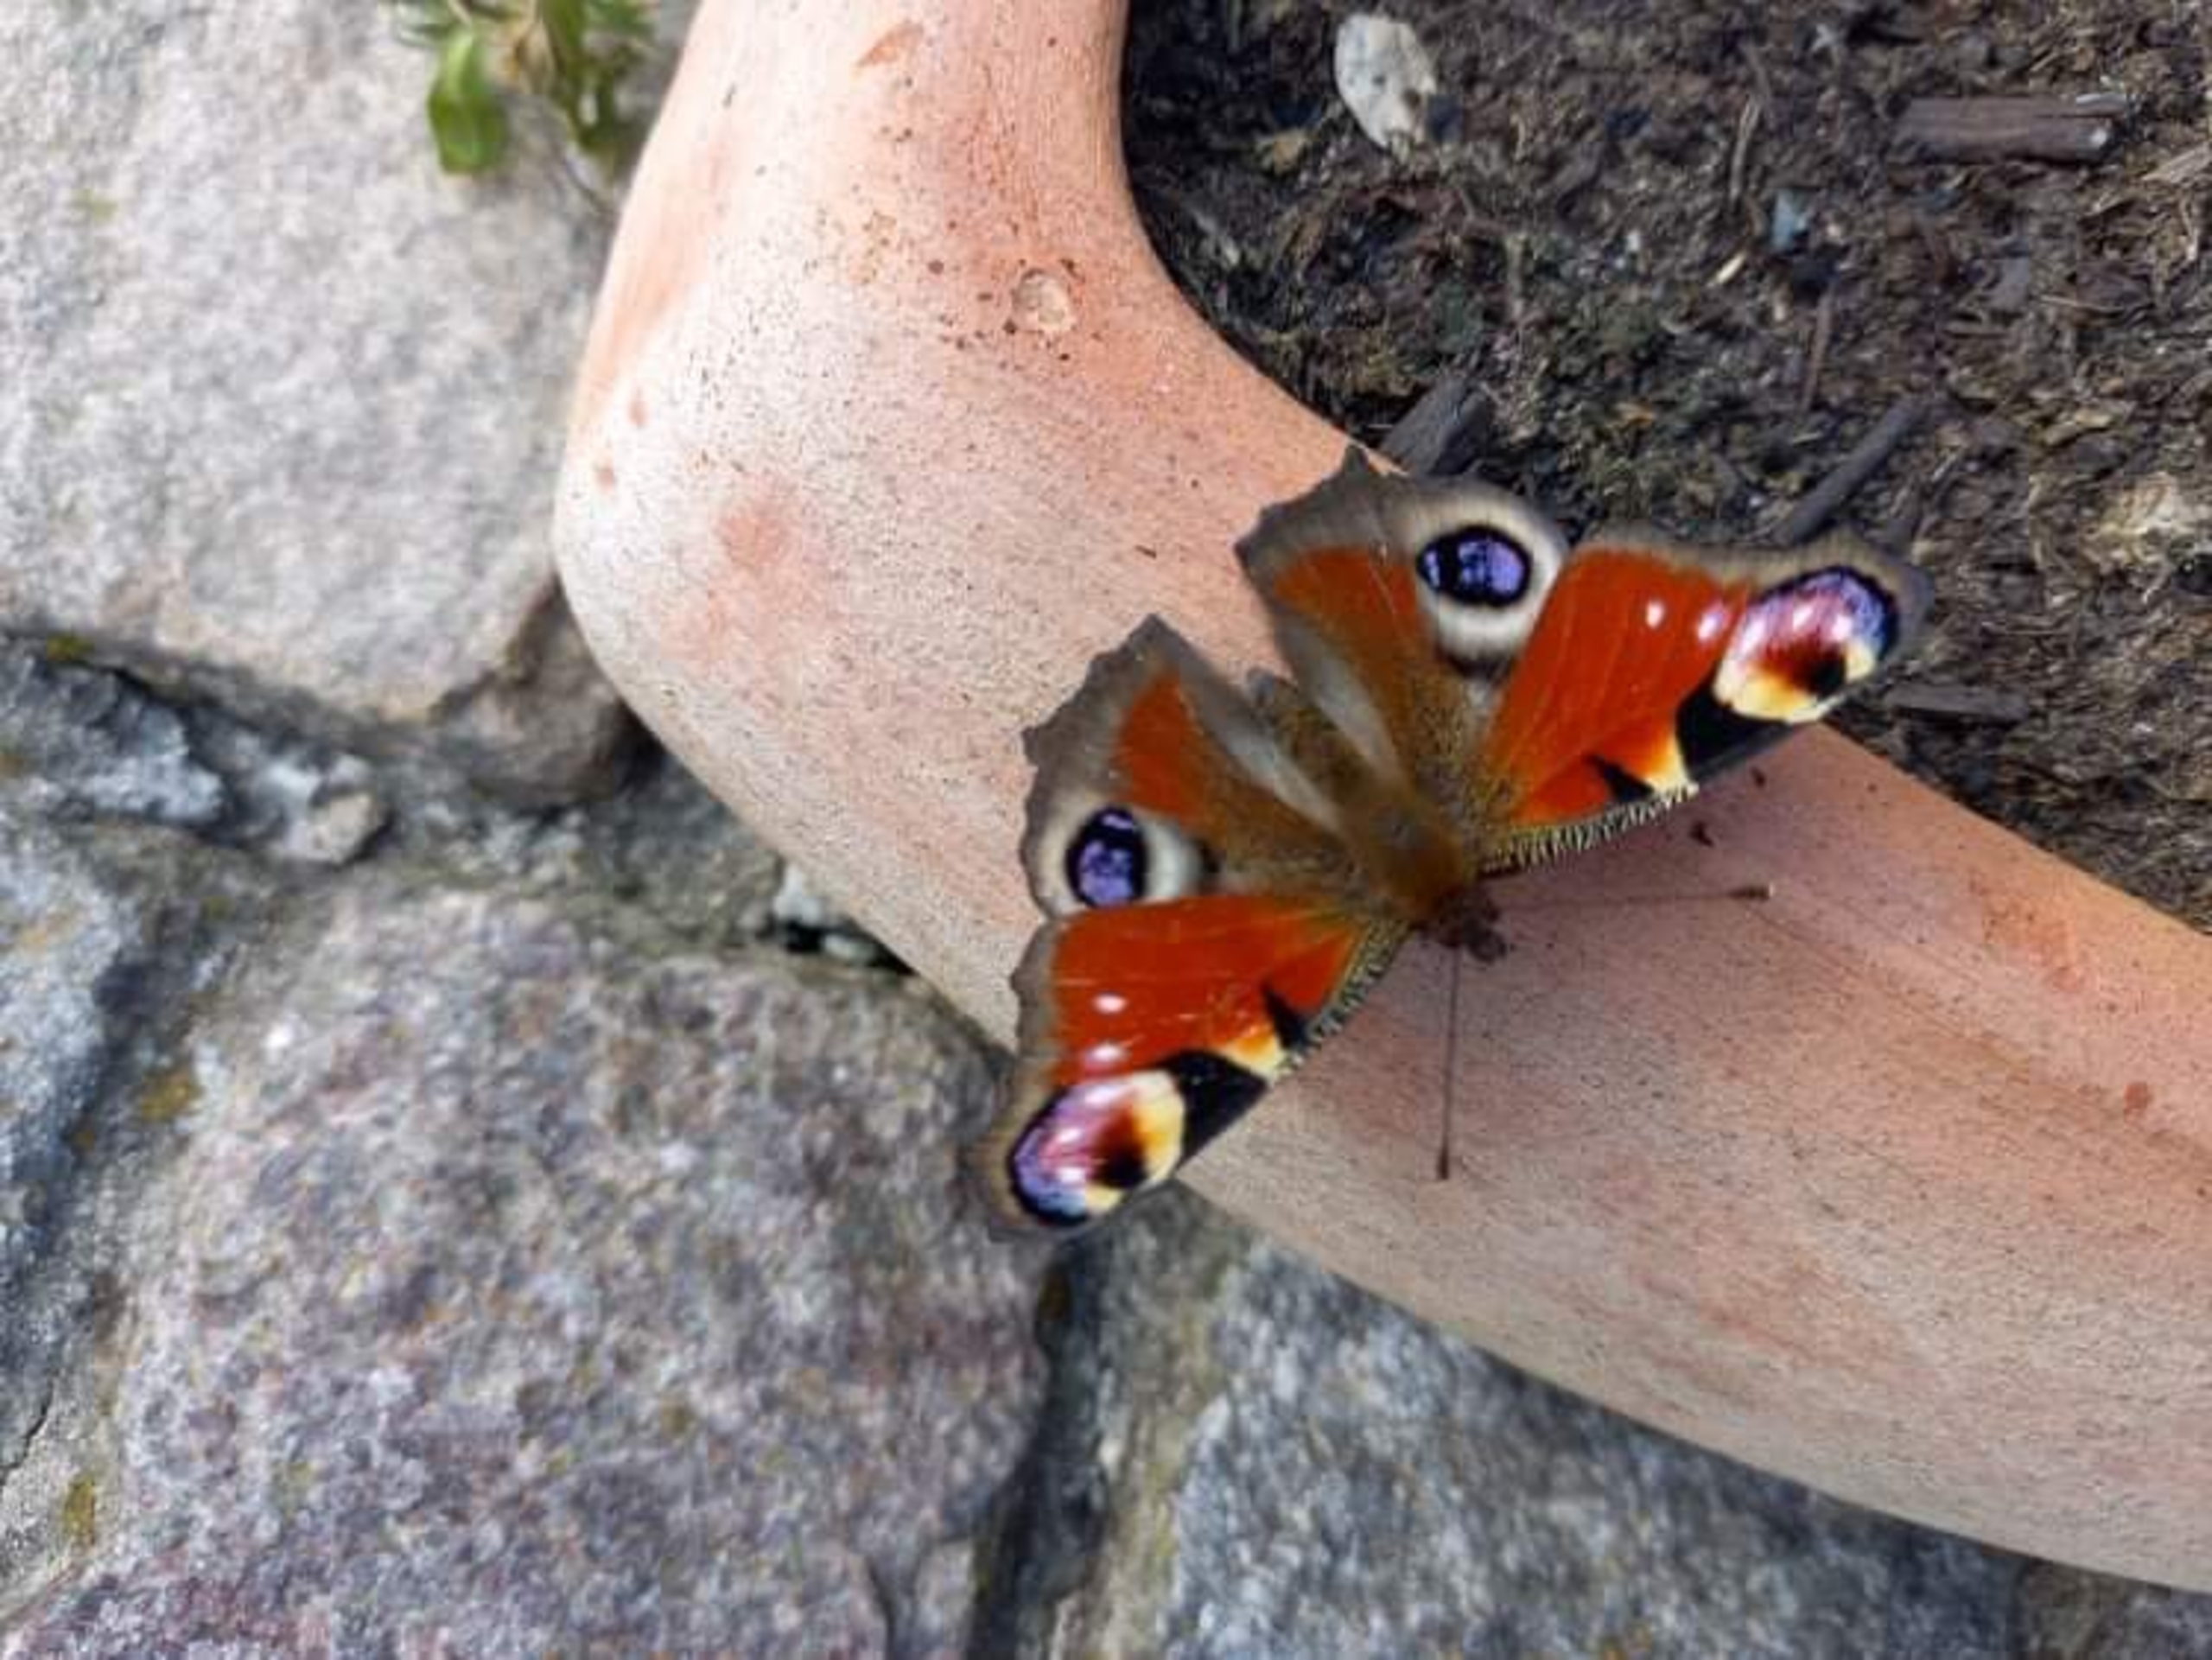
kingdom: Animalia
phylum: Arthropoda
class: Insecta
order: Lepidoptera
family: Nymphalidae
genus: Aglais
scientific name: Aglais io
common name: Dagpåfugleøje
